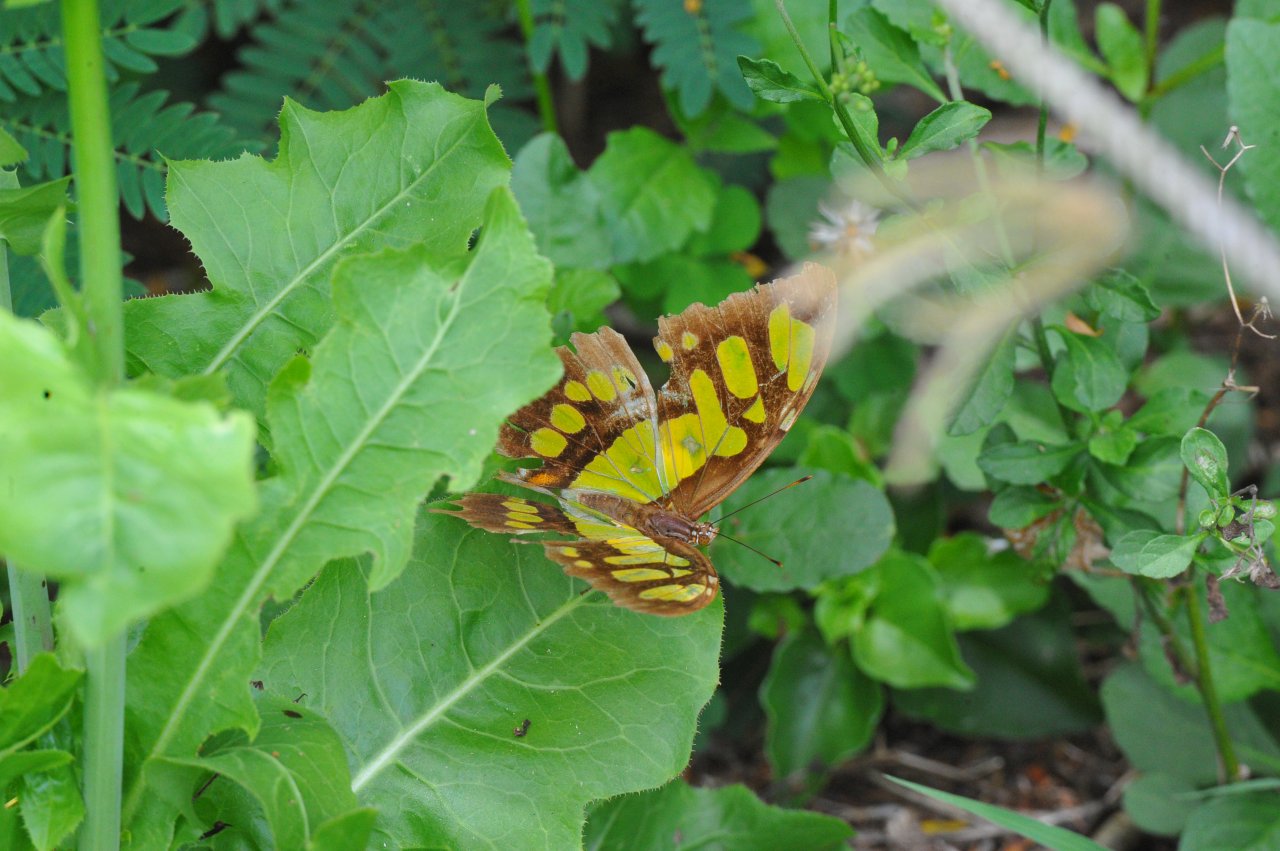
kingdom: Animalia
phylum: Arthropoda
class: Insecta
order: Lepidoptera
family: Nymphalidae
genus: Siproeta
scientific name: Siproeta stelenes
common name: Malachite
